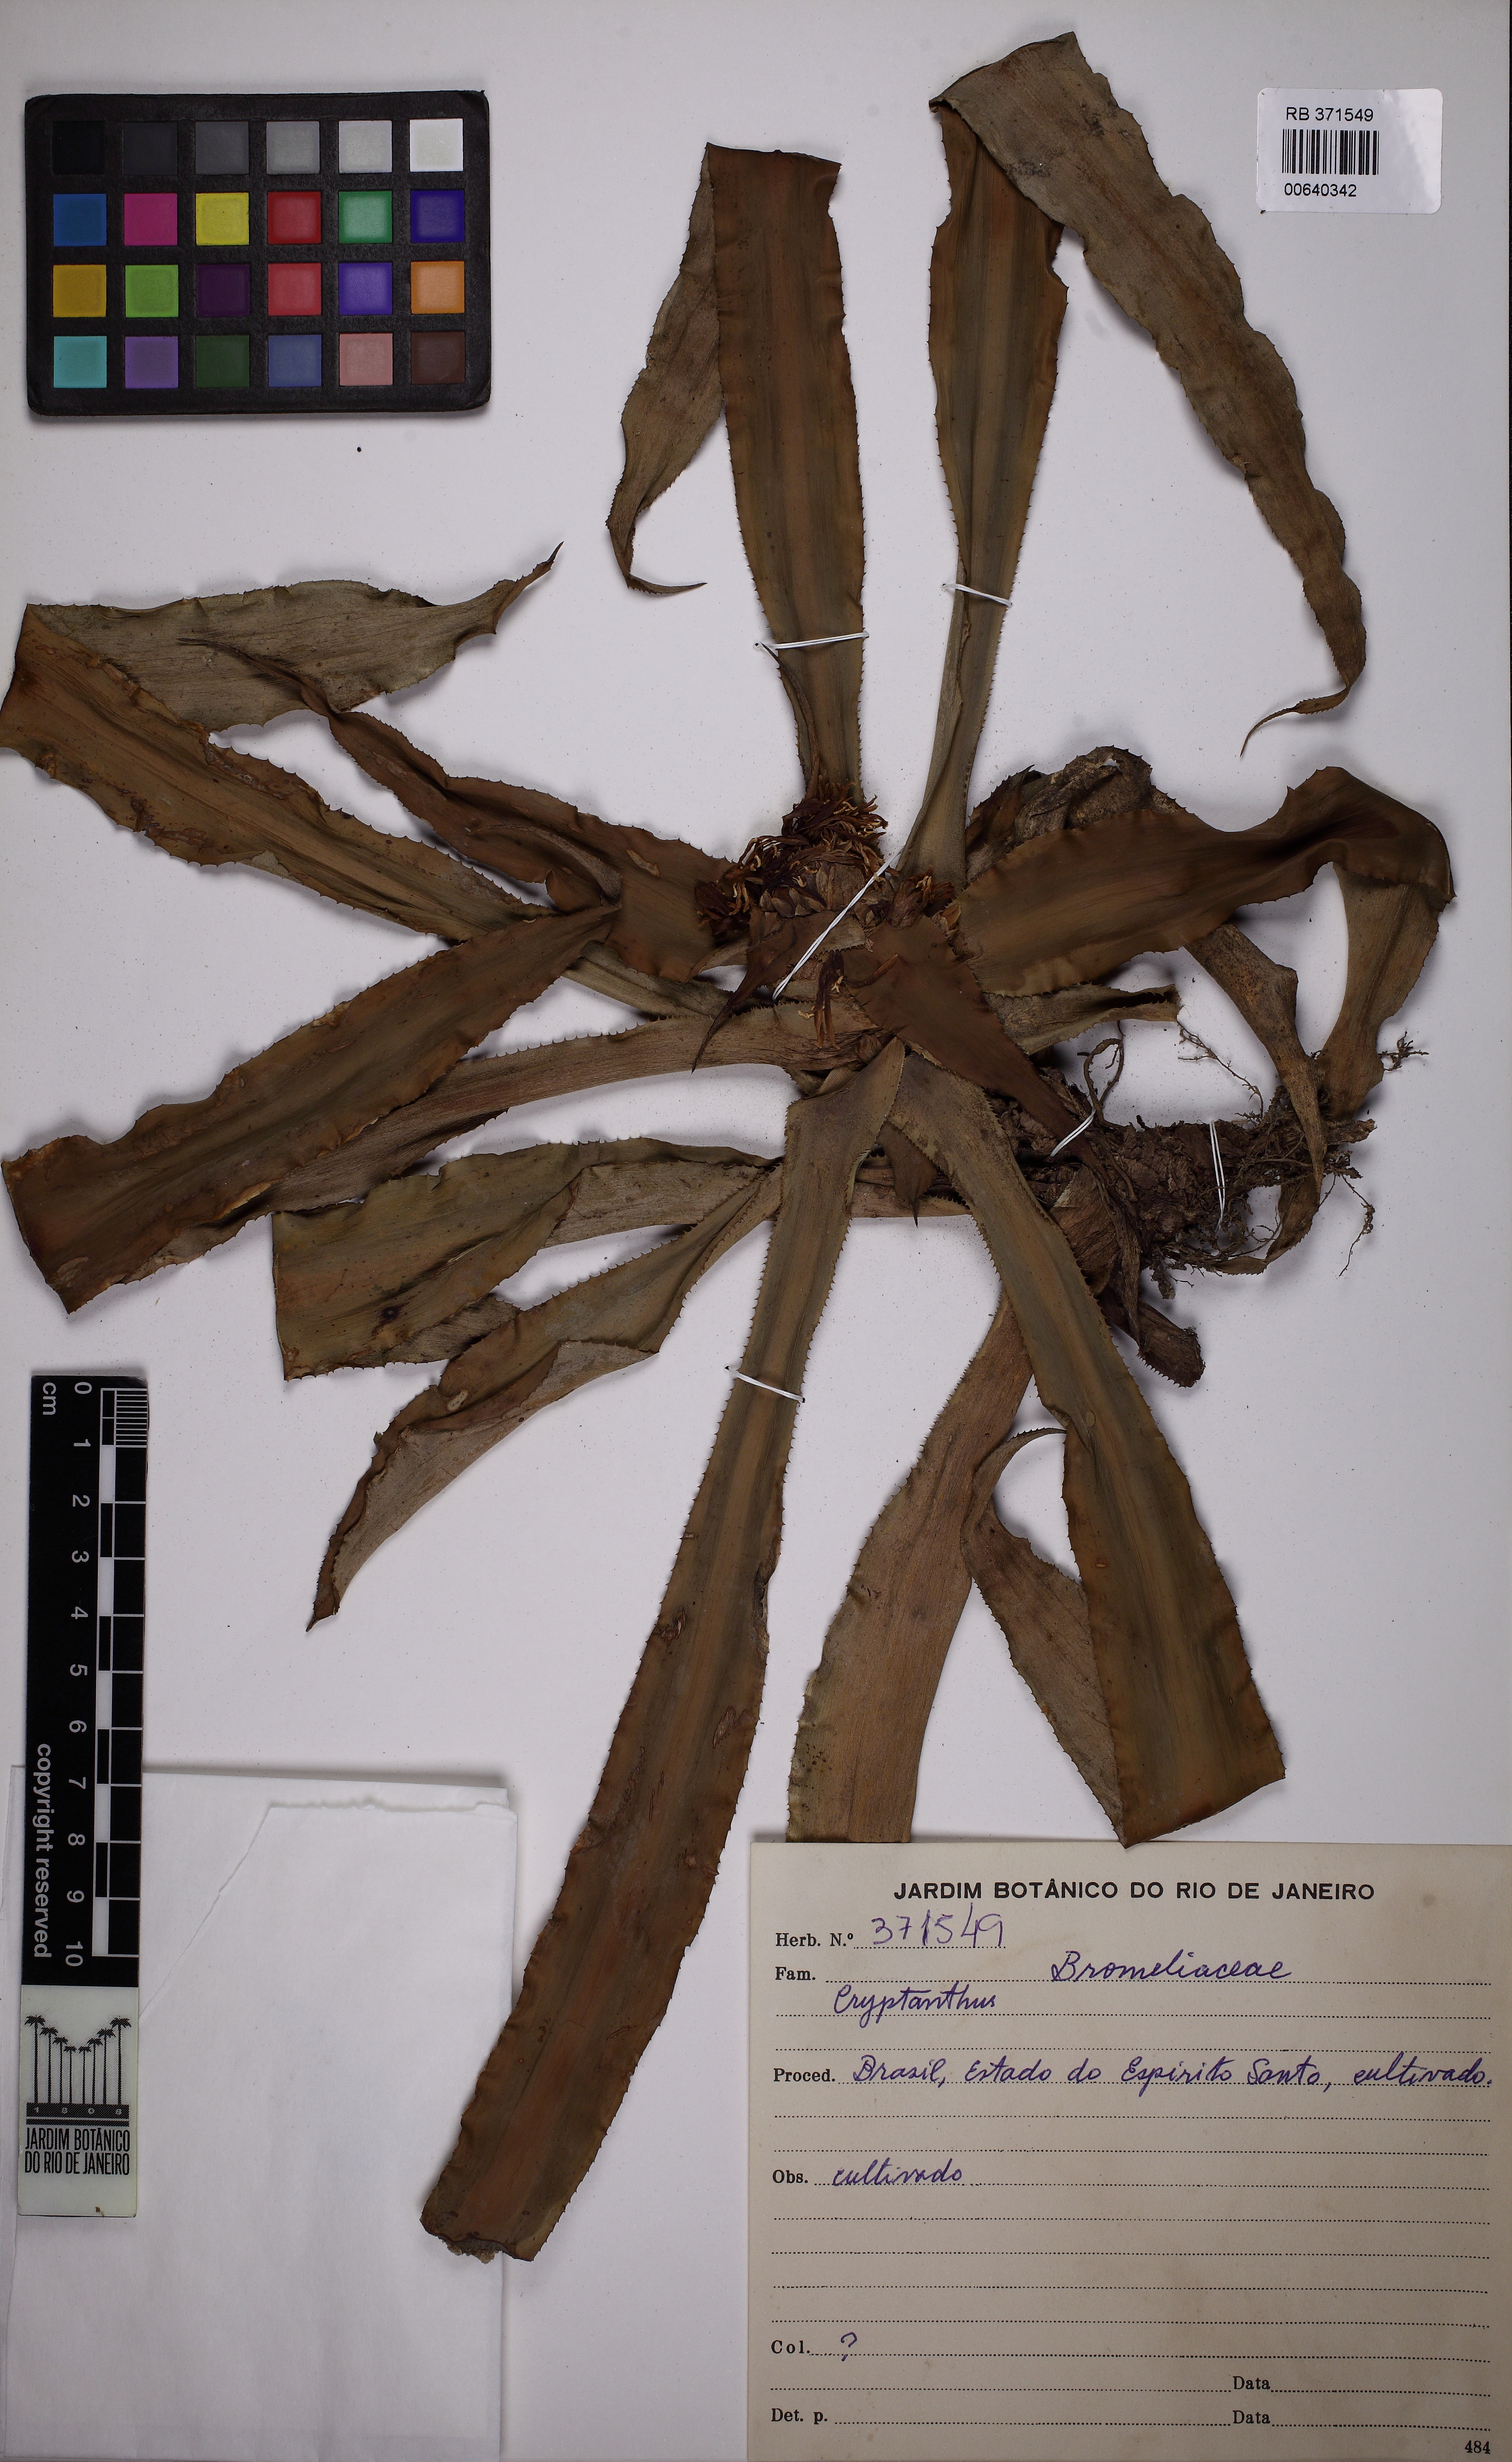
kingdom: Plantae
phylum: Tracheophyta
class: Liliopsida
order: Poales
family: Bromeliaceae
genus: Cryptanthus
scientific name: Cryptanthus
